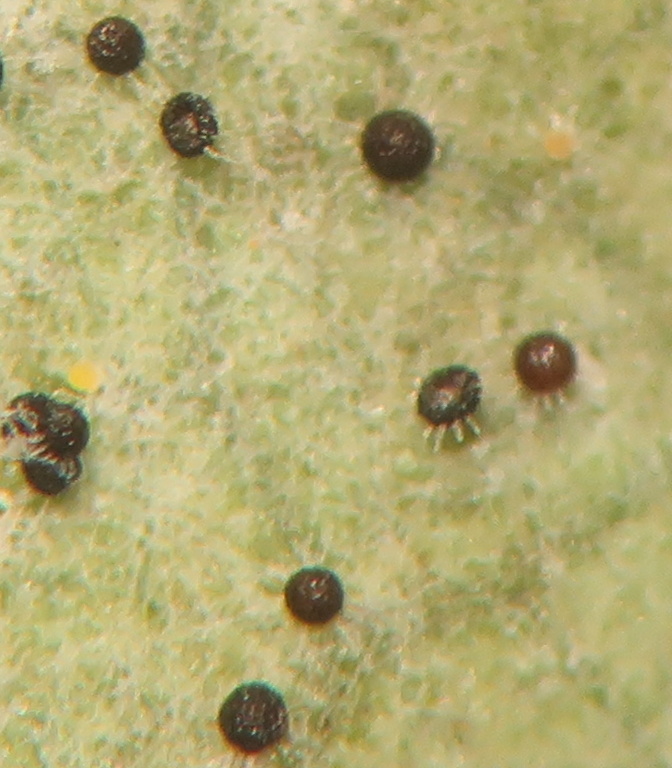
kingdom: Fungi
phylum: Ascomycota
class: Leotiomycetes
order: Helotiales
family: Erysiphaceae
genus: Erysiphe
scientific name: Erysiphe alphitoides
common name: ege-meldug
